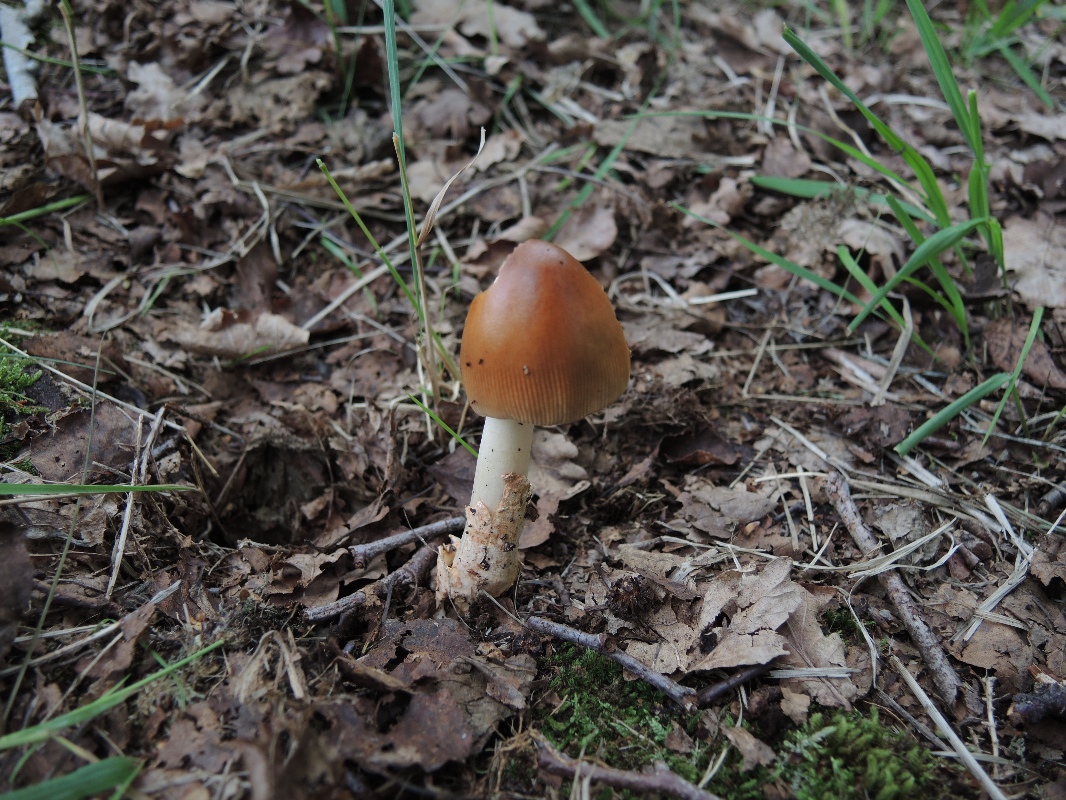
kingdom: Fungi
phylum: Basidiomycota
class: Agaricomycetes
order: Agaricales
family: Amanitaceae
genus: Amanita
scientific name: Amanita fulva
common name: brun kam-fluesvamp
